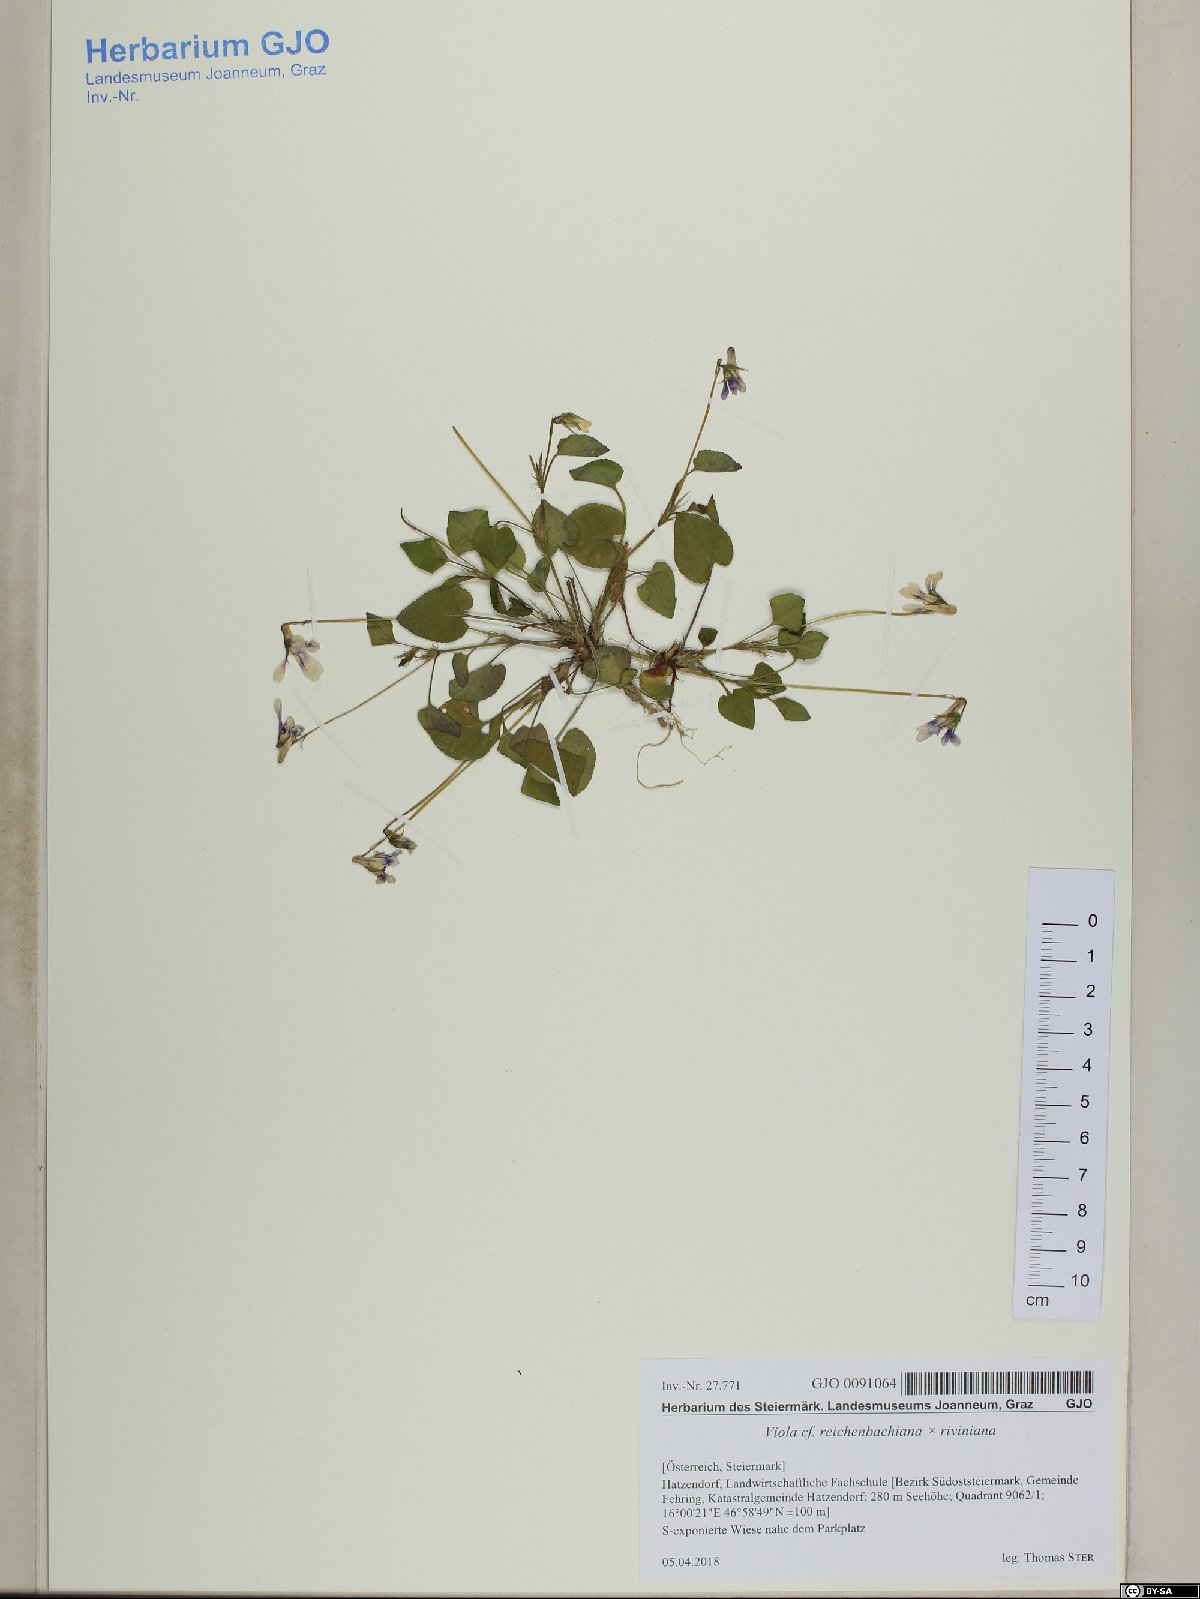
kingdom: Plantae
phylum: Tracheophyta
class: Magnoliopsida
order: Malpighiales
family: Violaceae
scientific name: Violaceae
